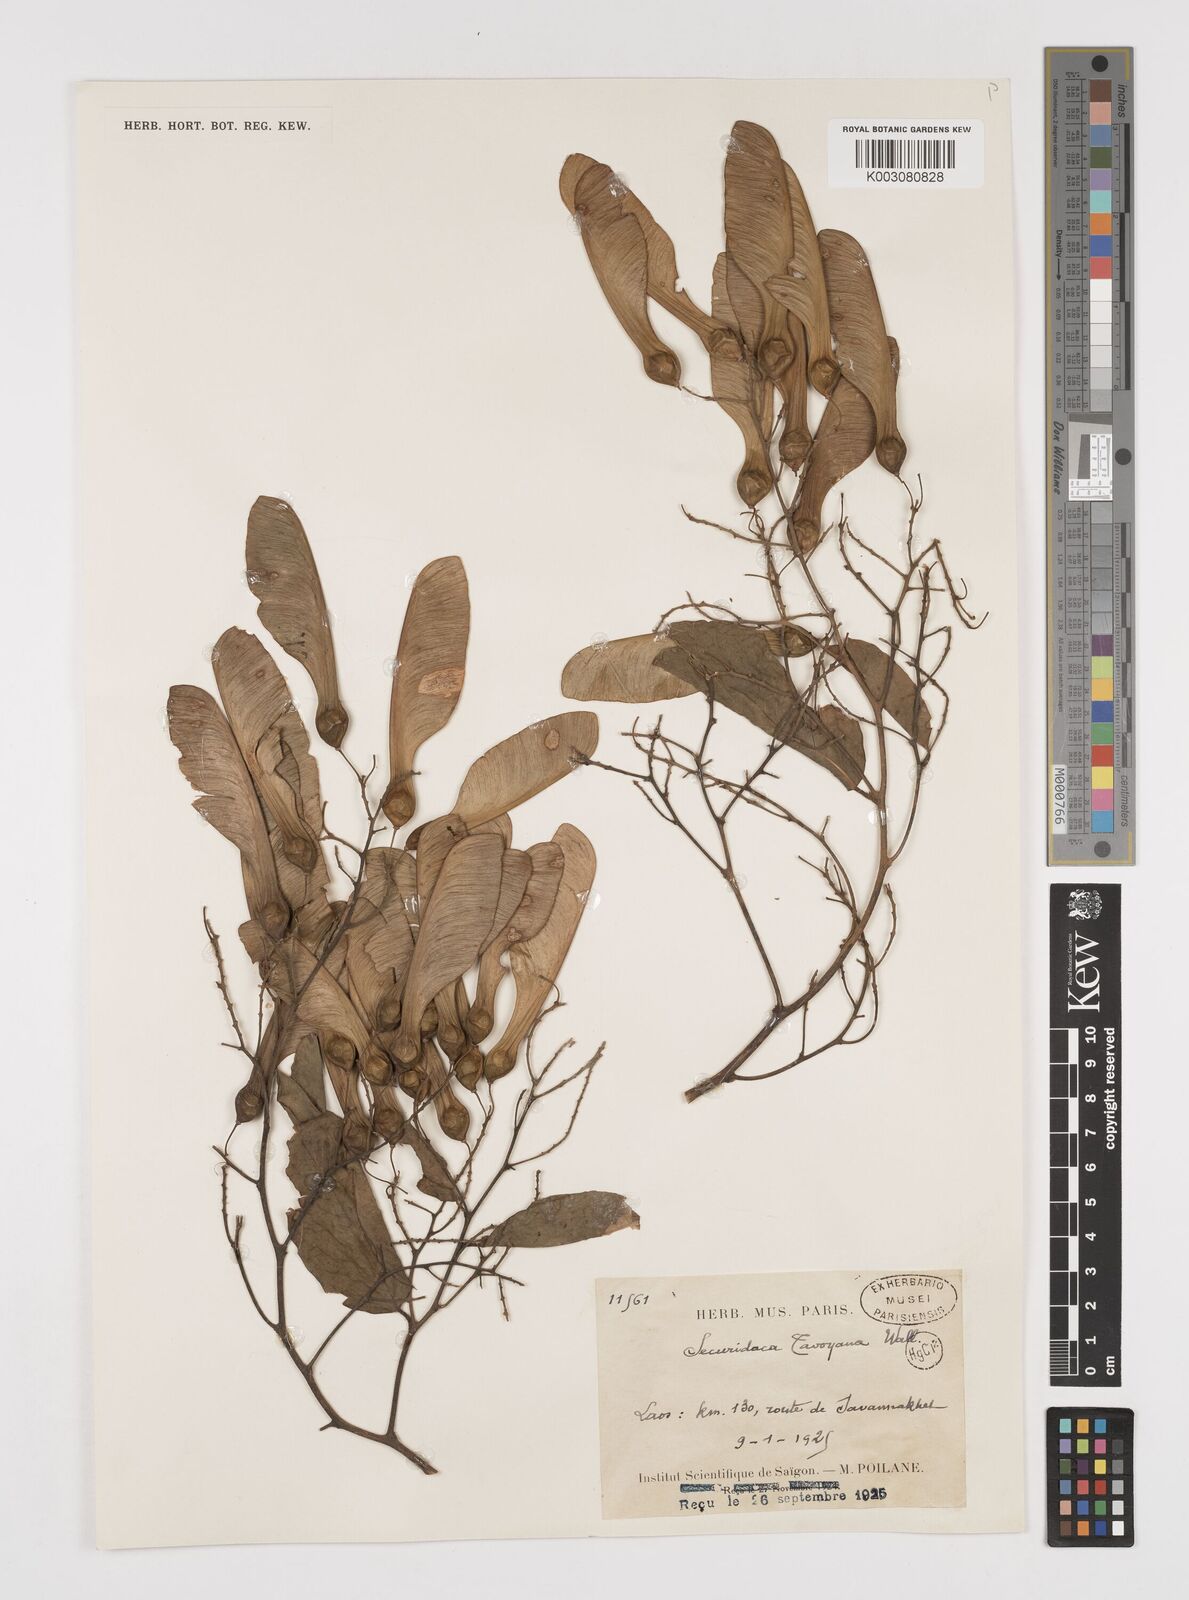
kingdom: Plantae
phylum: Tracheophyta
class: Magnoliopsida
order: Fabales
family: Polygalaceae
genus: Securidaca
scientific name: Securidaca inappendiculata
